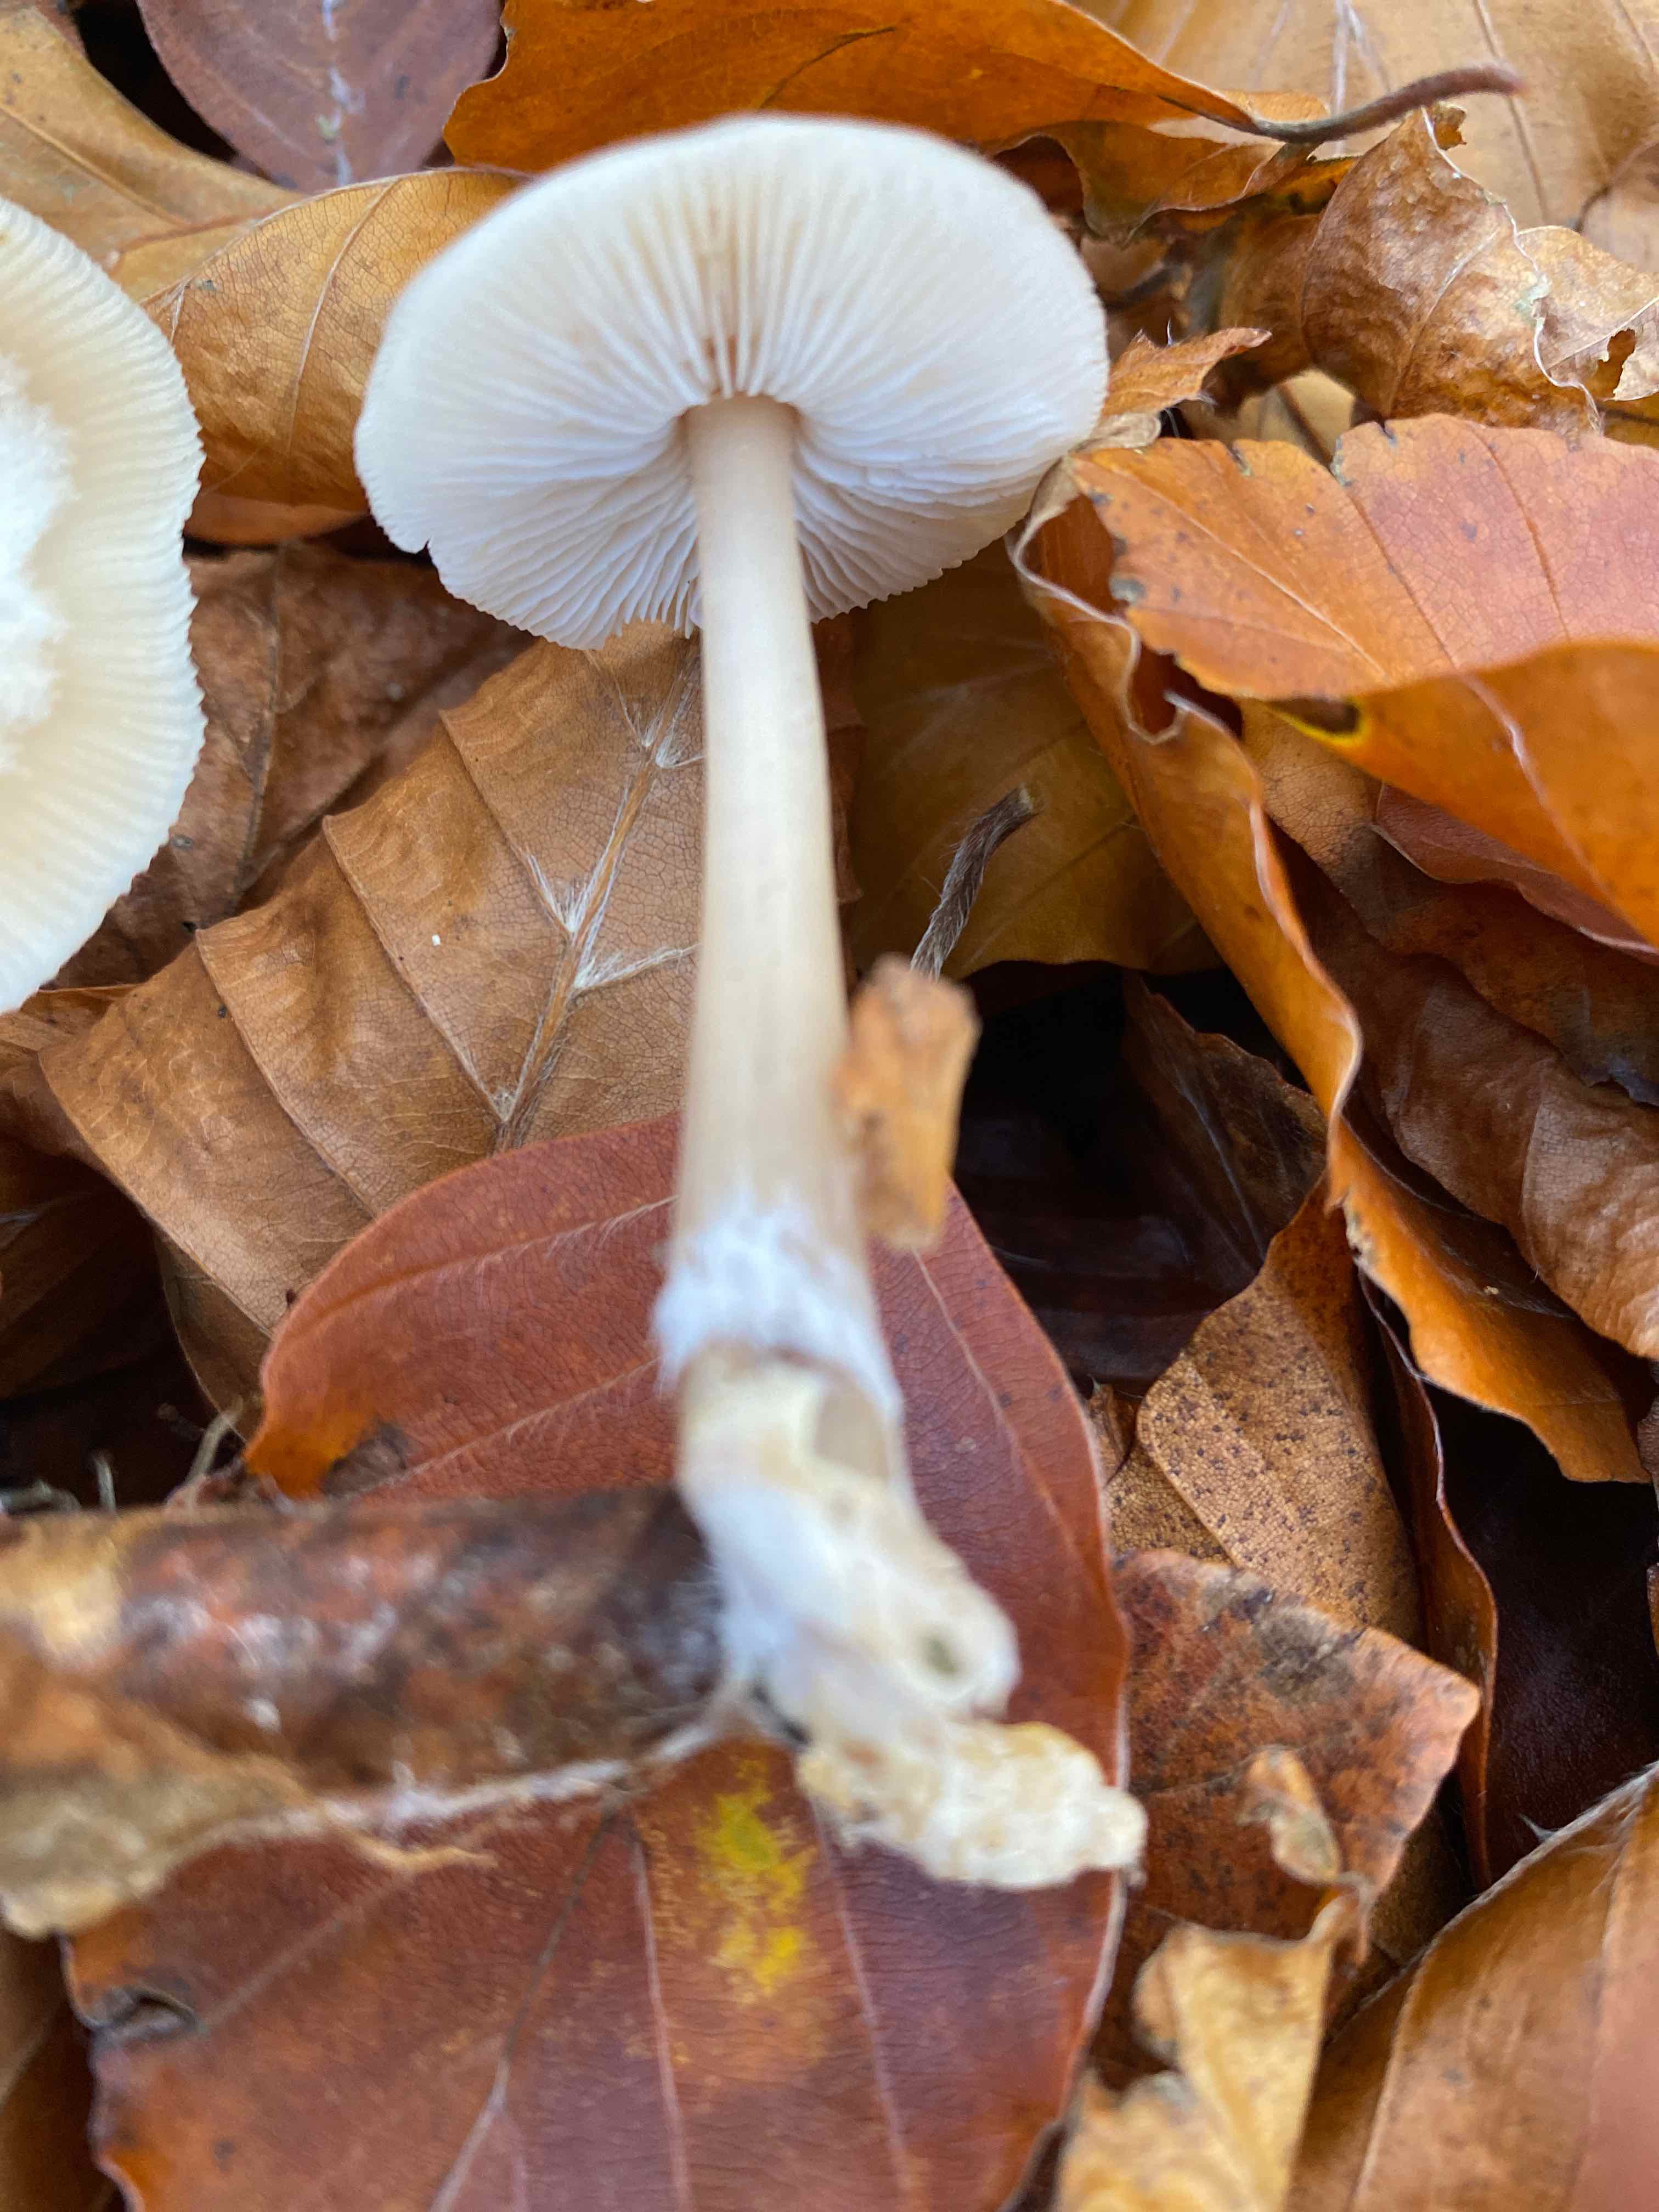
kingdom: Fungi
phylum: Basidiomycota
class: Agaricomycetes
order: Agaricales
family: Omphalotaceae
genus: Rhodocollybia
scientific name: Rhodocollybia asema
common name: horngrå fladhat
